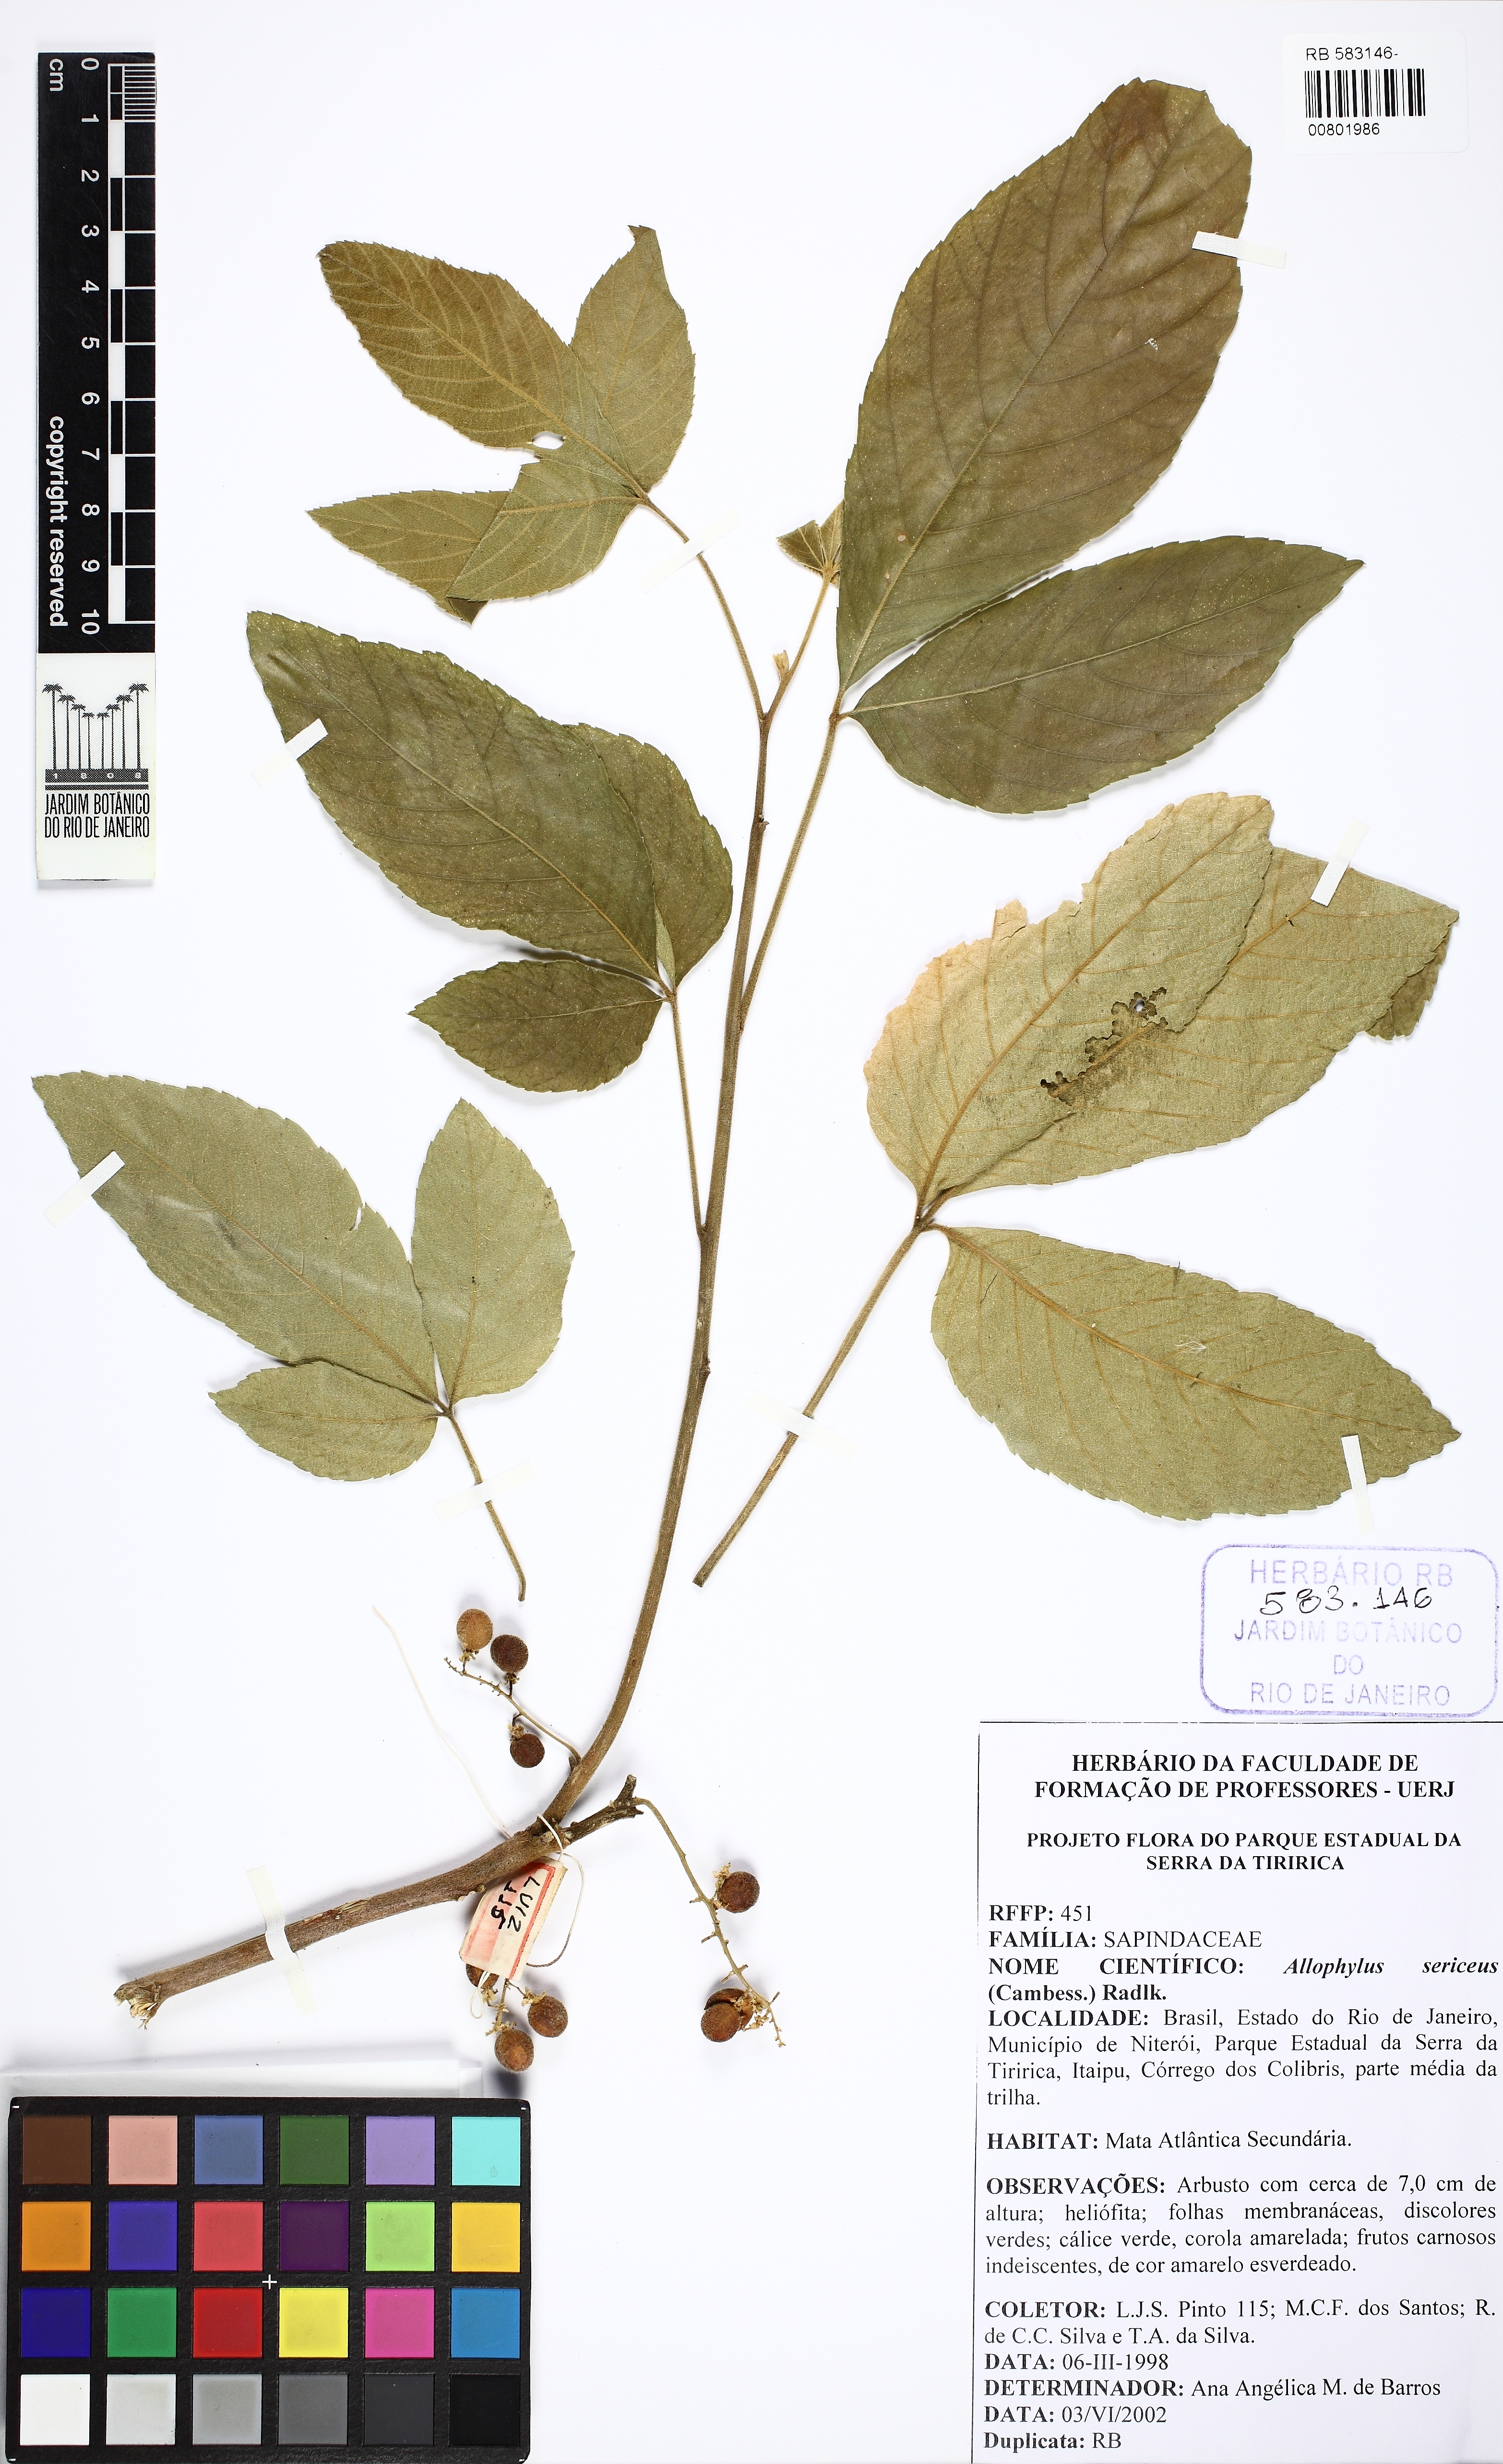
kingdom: Plantae
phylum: Tracheophyta
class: Magnoliopsida
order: Sapindales
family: Sapindaceae
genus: Allophylus
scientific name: Allophylus sericeus
